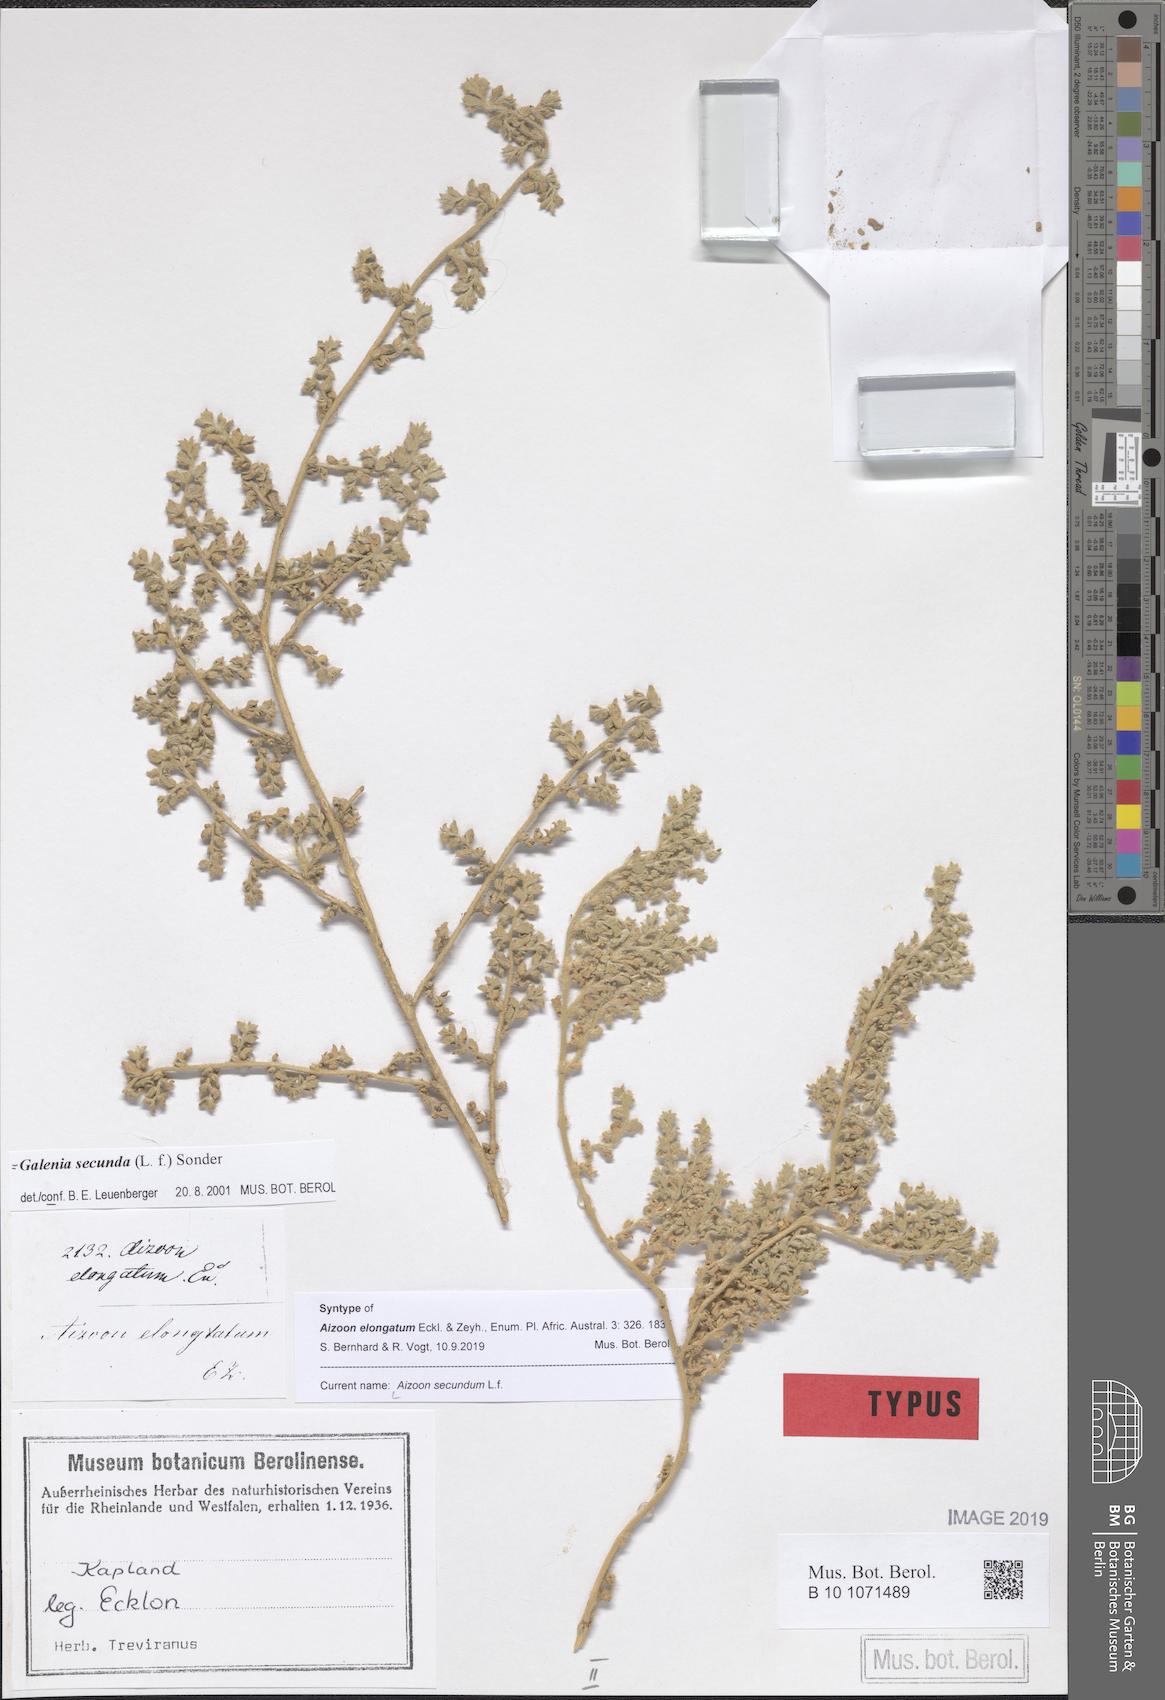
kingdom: Plantae
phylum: Tracheophyta
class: Magnoliopsida
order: Caryophyllales
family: Aizoaceae
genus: Aizoon
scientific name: Aizoon secundum
